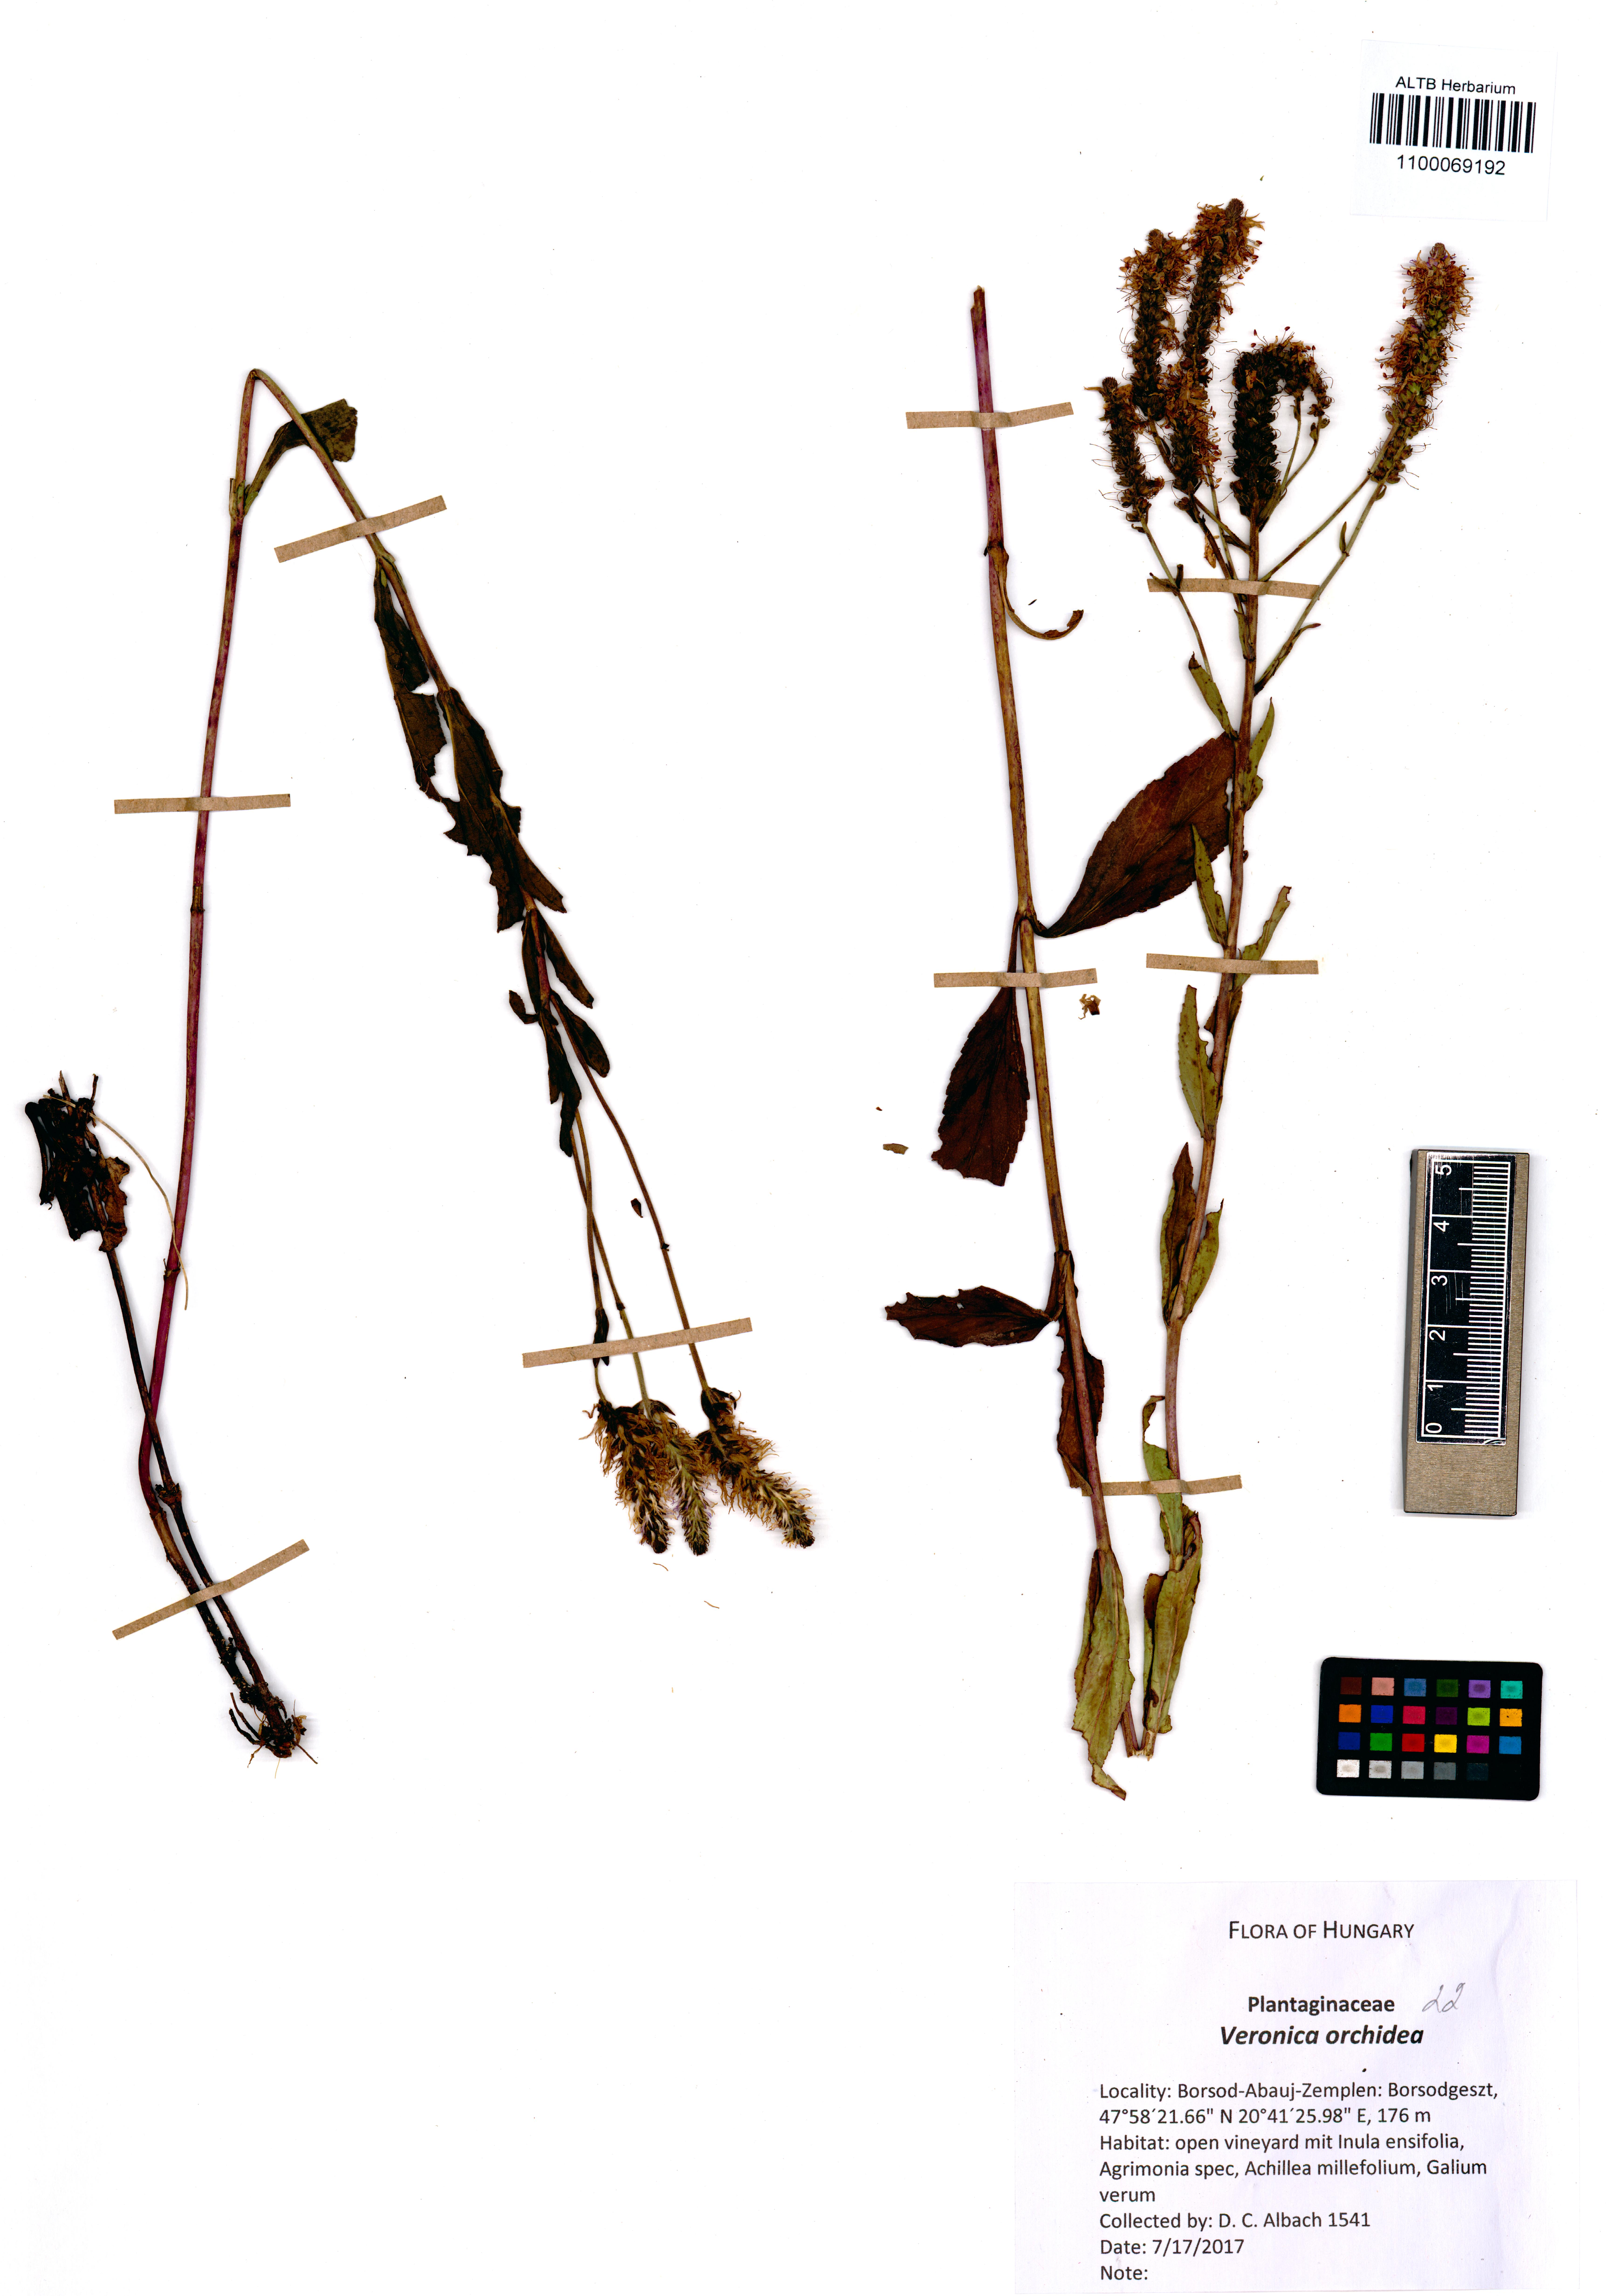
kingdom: Plantae
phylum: Tracheophyta
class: Magnoliopsida
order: Lamiales
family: Plantaginaceae
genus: Veronica
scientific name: Veronica orchidea
